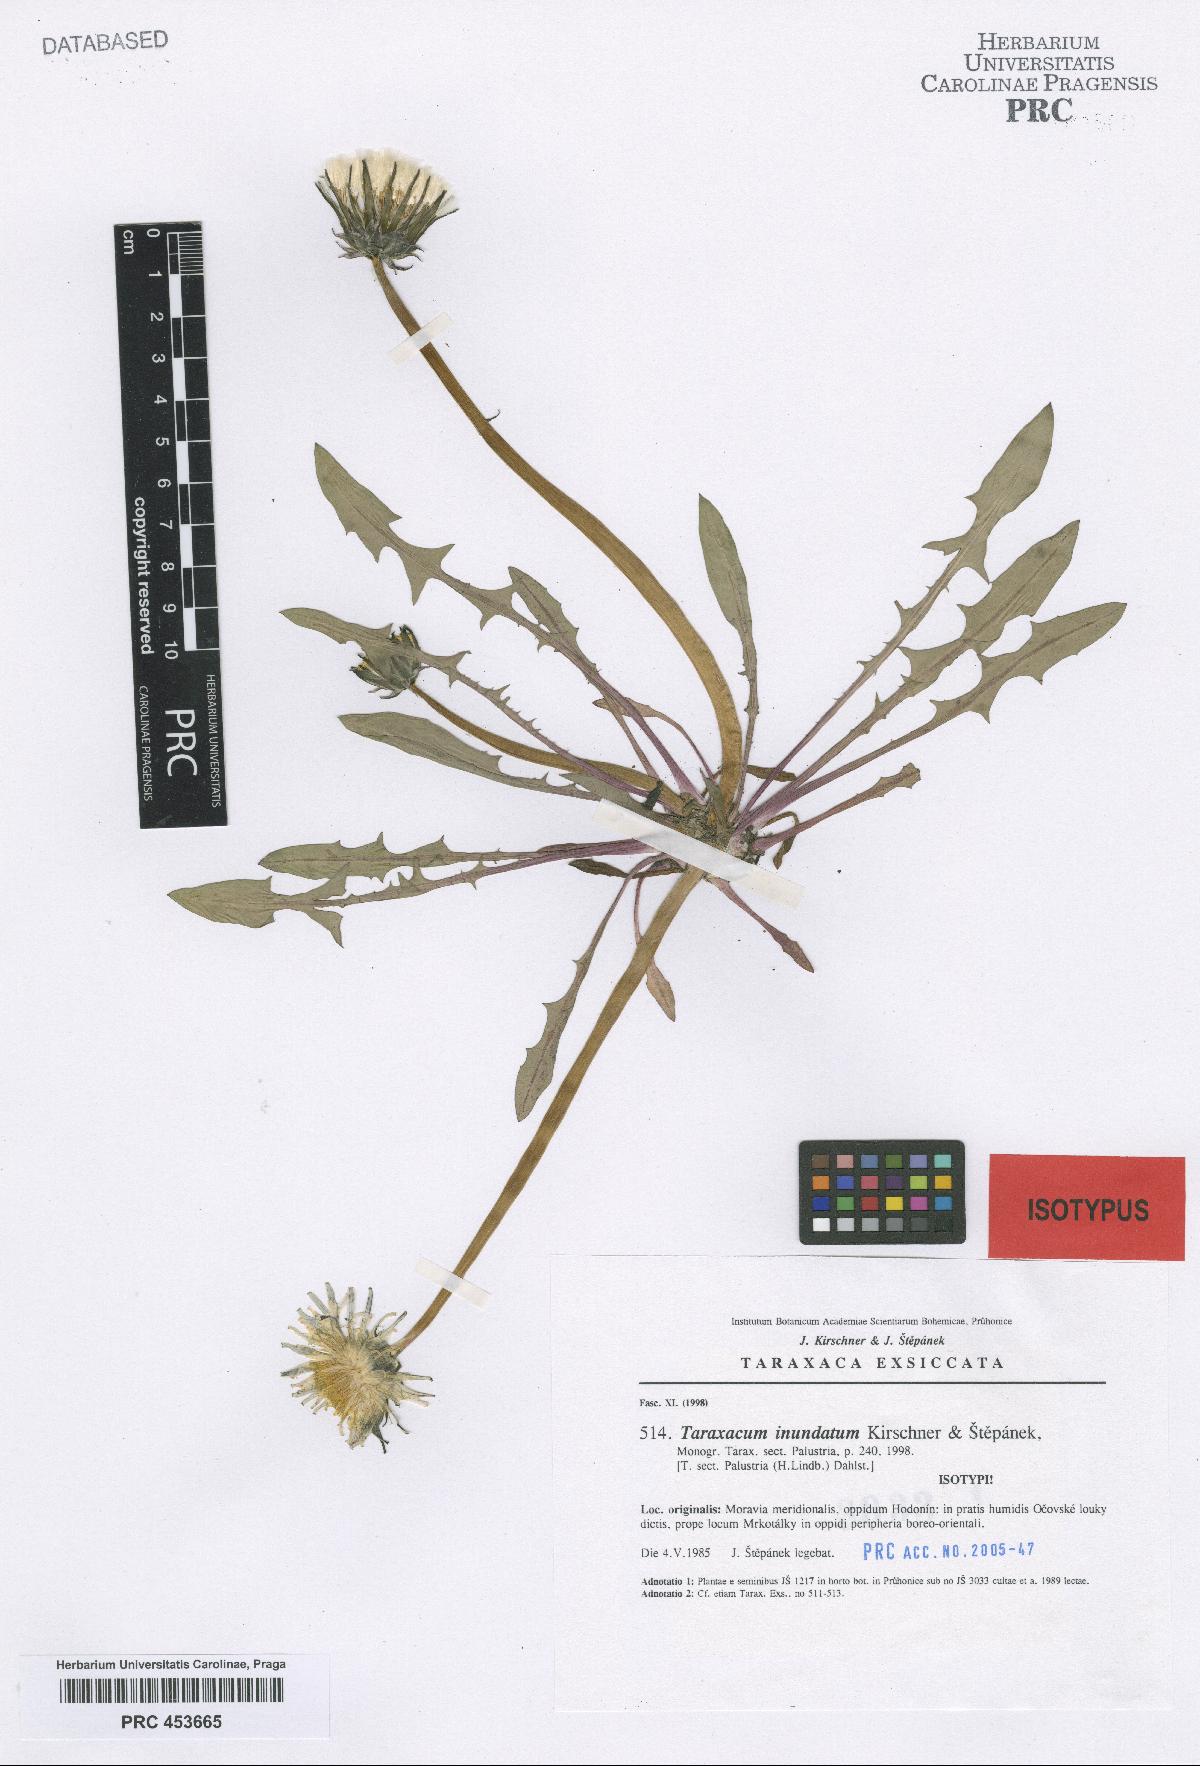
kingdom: Plantae
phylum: Tracheophyta
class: Magnoliopsida
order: Asterales
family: Asteraceae
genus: Taraxacum
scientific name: Taraxacum
